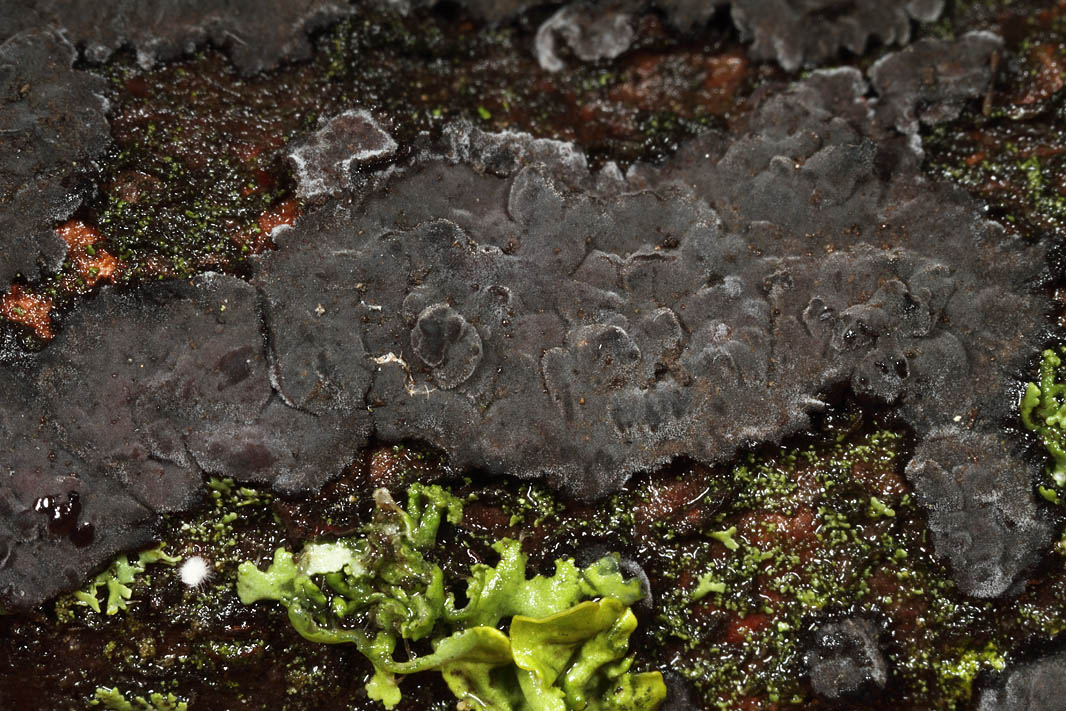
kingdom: Fungi
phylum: Basidiomycota
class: Agaricomycetes
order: Russulales
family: Peniophoraceae
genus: Peniophora
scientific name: Peniophora rufomarginata
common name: linde-voksskind
